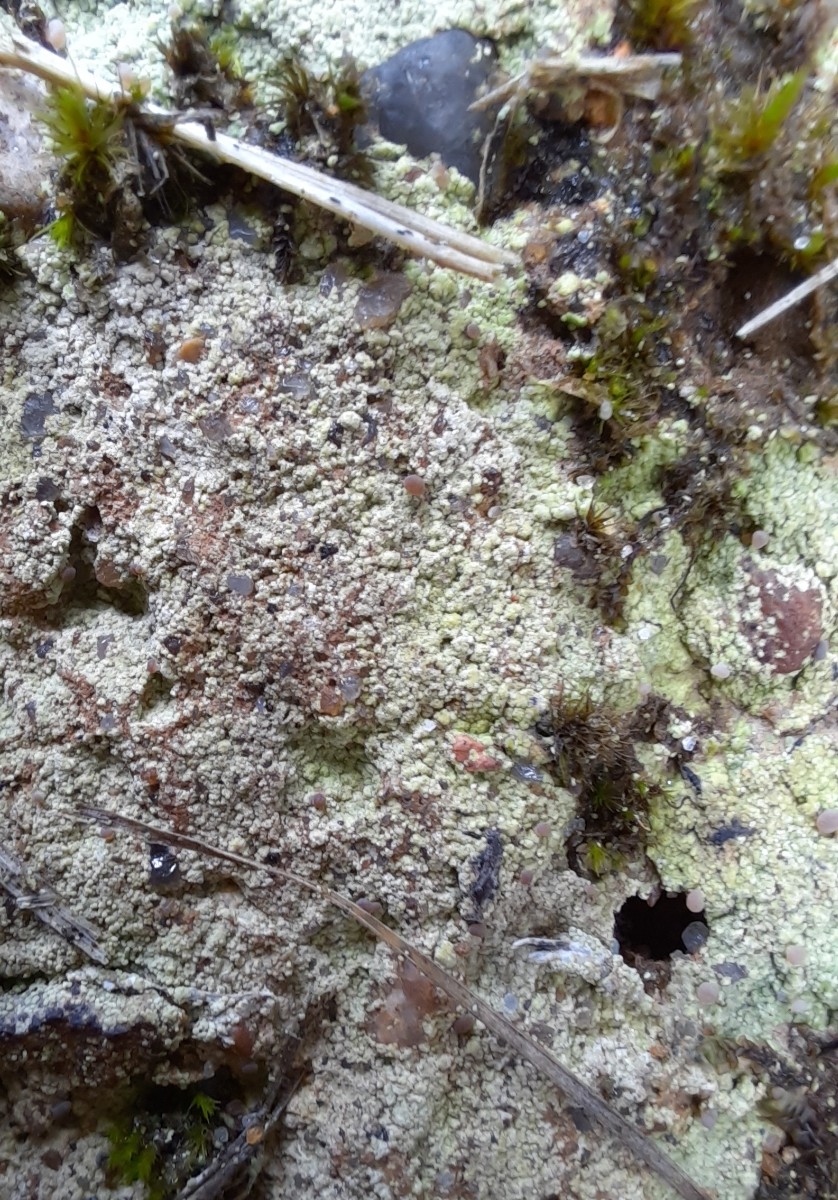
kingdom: Fungi
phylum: Ascomycota
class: Lecanoromycetes
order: Baeomycetales
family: Baeomycetaceae
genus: Baeomyces
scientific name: Baeomyces rufus
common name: rødbrun svampelav
